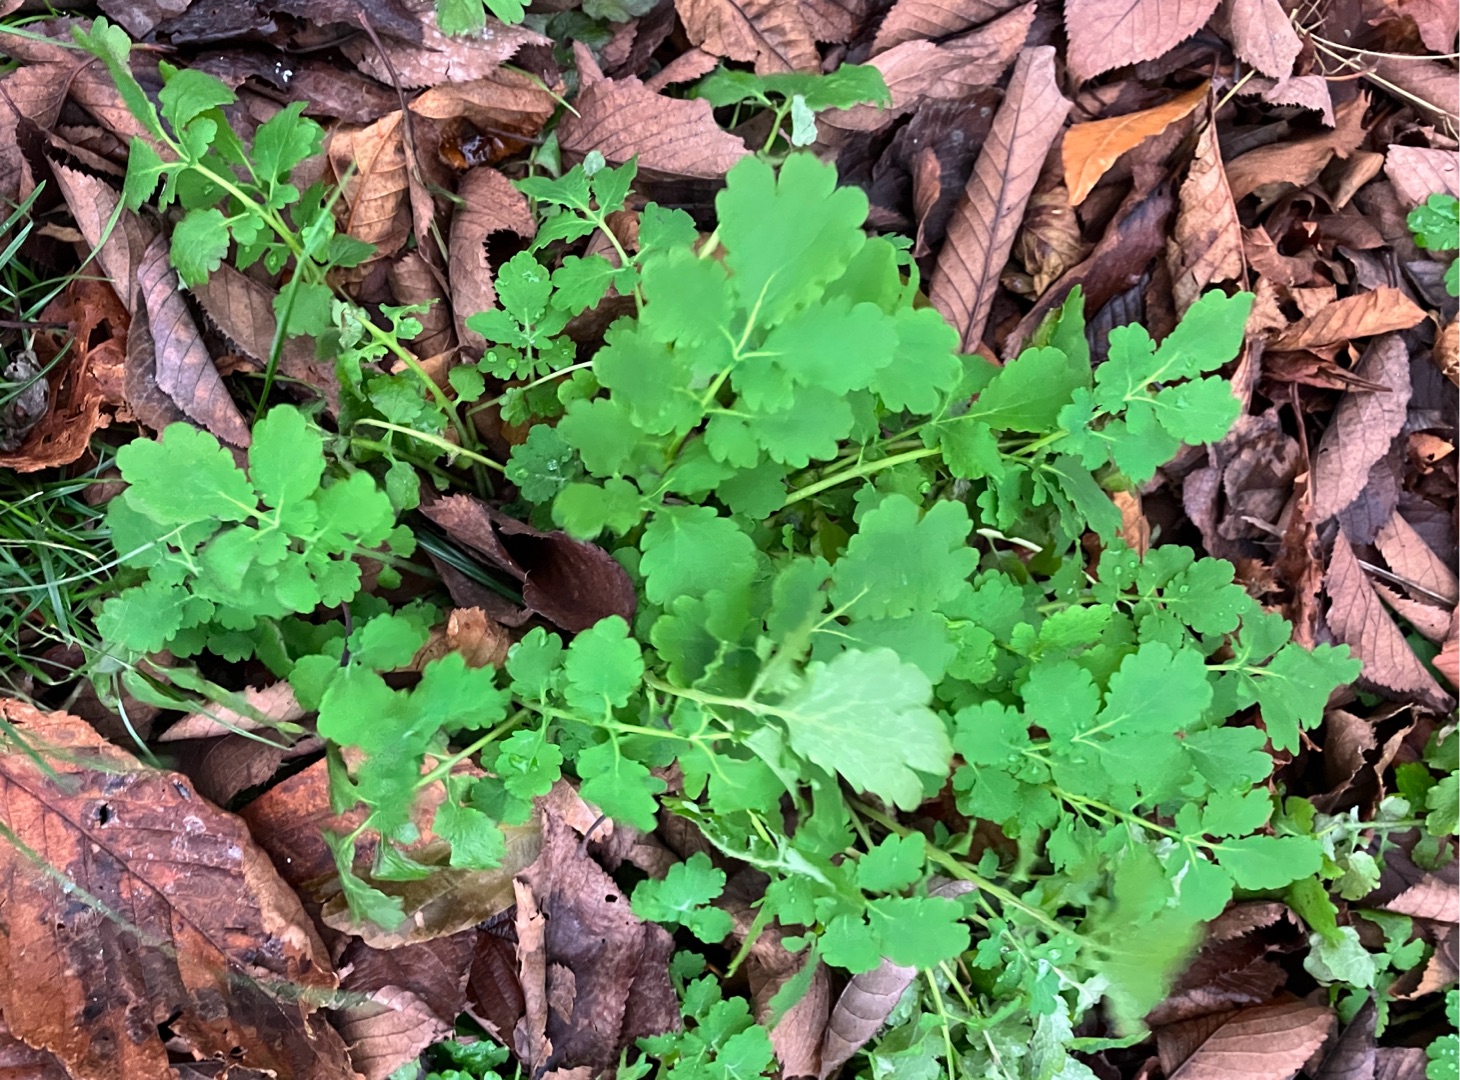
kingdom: Plantae
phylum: Tracheophyta
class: Magnoliopsida
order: Ranunculales
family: Papaveraceae
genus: Chelidonium
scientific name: Chelidonium majus
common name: Svaleurt
